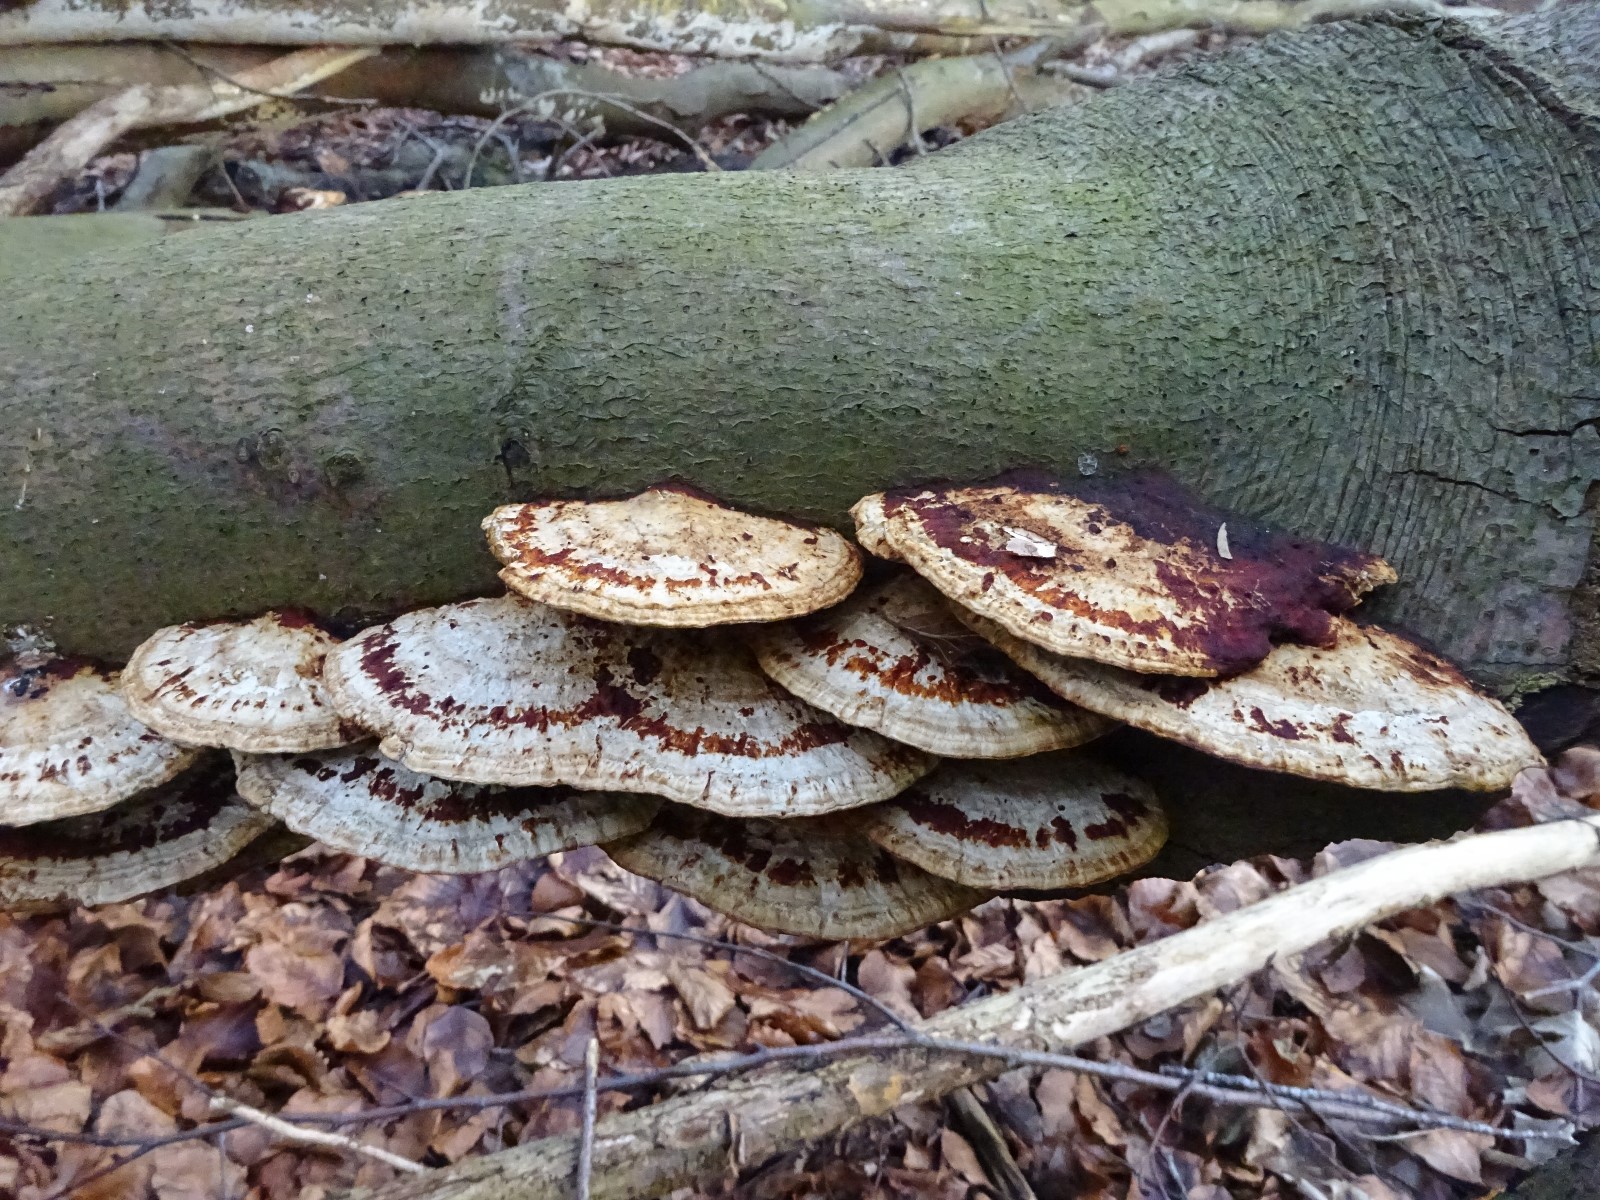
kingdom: Fungi
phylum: Basidiomycota
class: Agaricomycetes
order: Polyporales
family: Polyporaceae
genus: Daedaleopsis
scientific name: Daedaleopsis confragosa
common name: rødmende læderporesvamp
